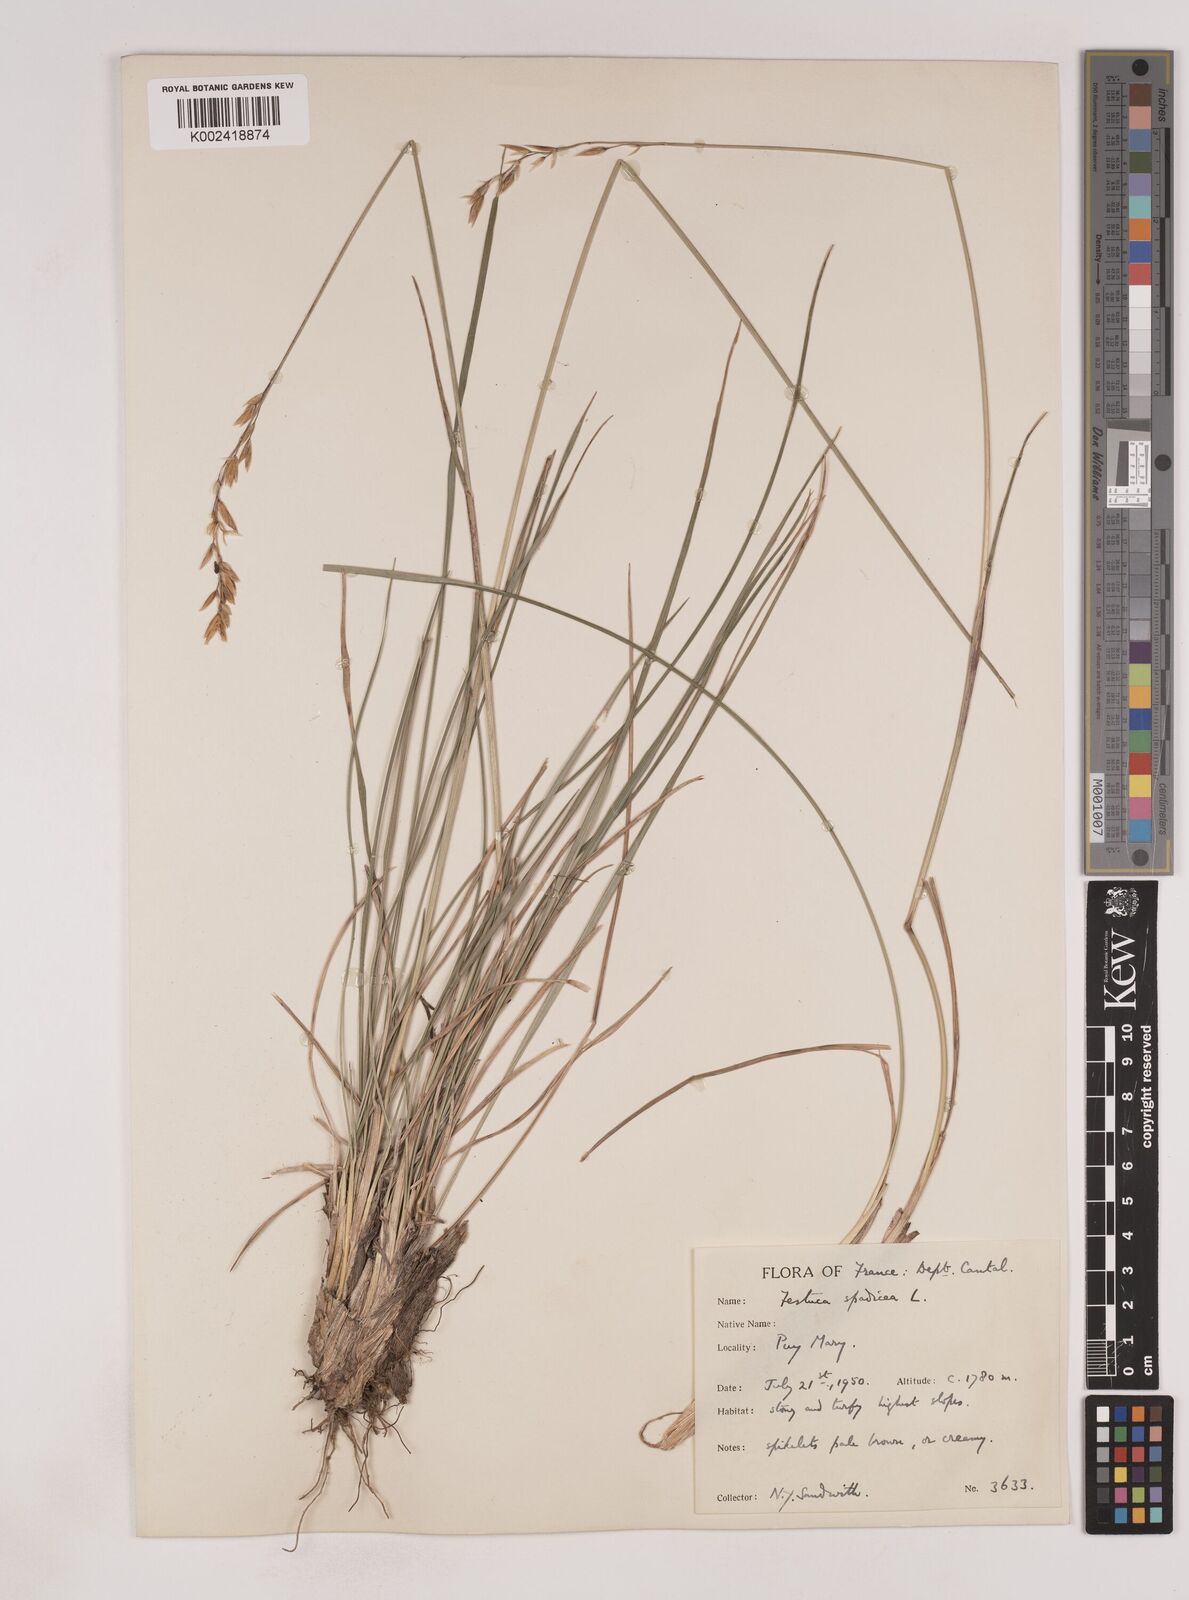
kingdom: Plantae
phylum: Tracheophyta
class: Liliopsida
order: Poales
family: Poaceae
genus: Patzkea
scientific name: Patzkea paniculata
